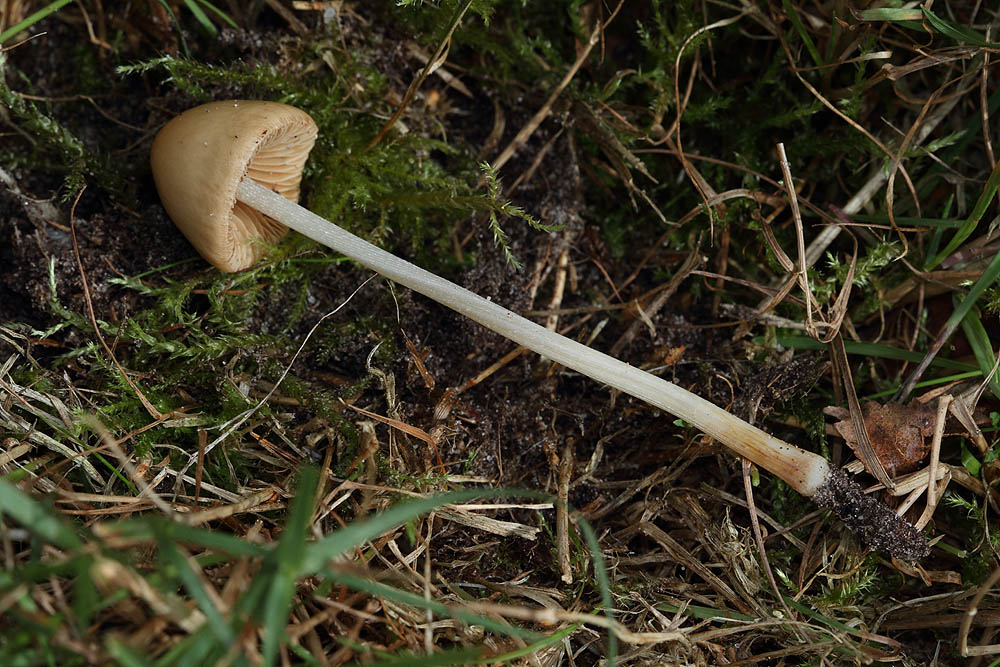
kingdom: Fungi
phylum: Basidiomycota
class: Agaricomycetes
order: Agaricales
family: Bolbitiaceae
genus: Conocybe
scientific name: Conocybe alboradicans
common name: rod-keglehat
